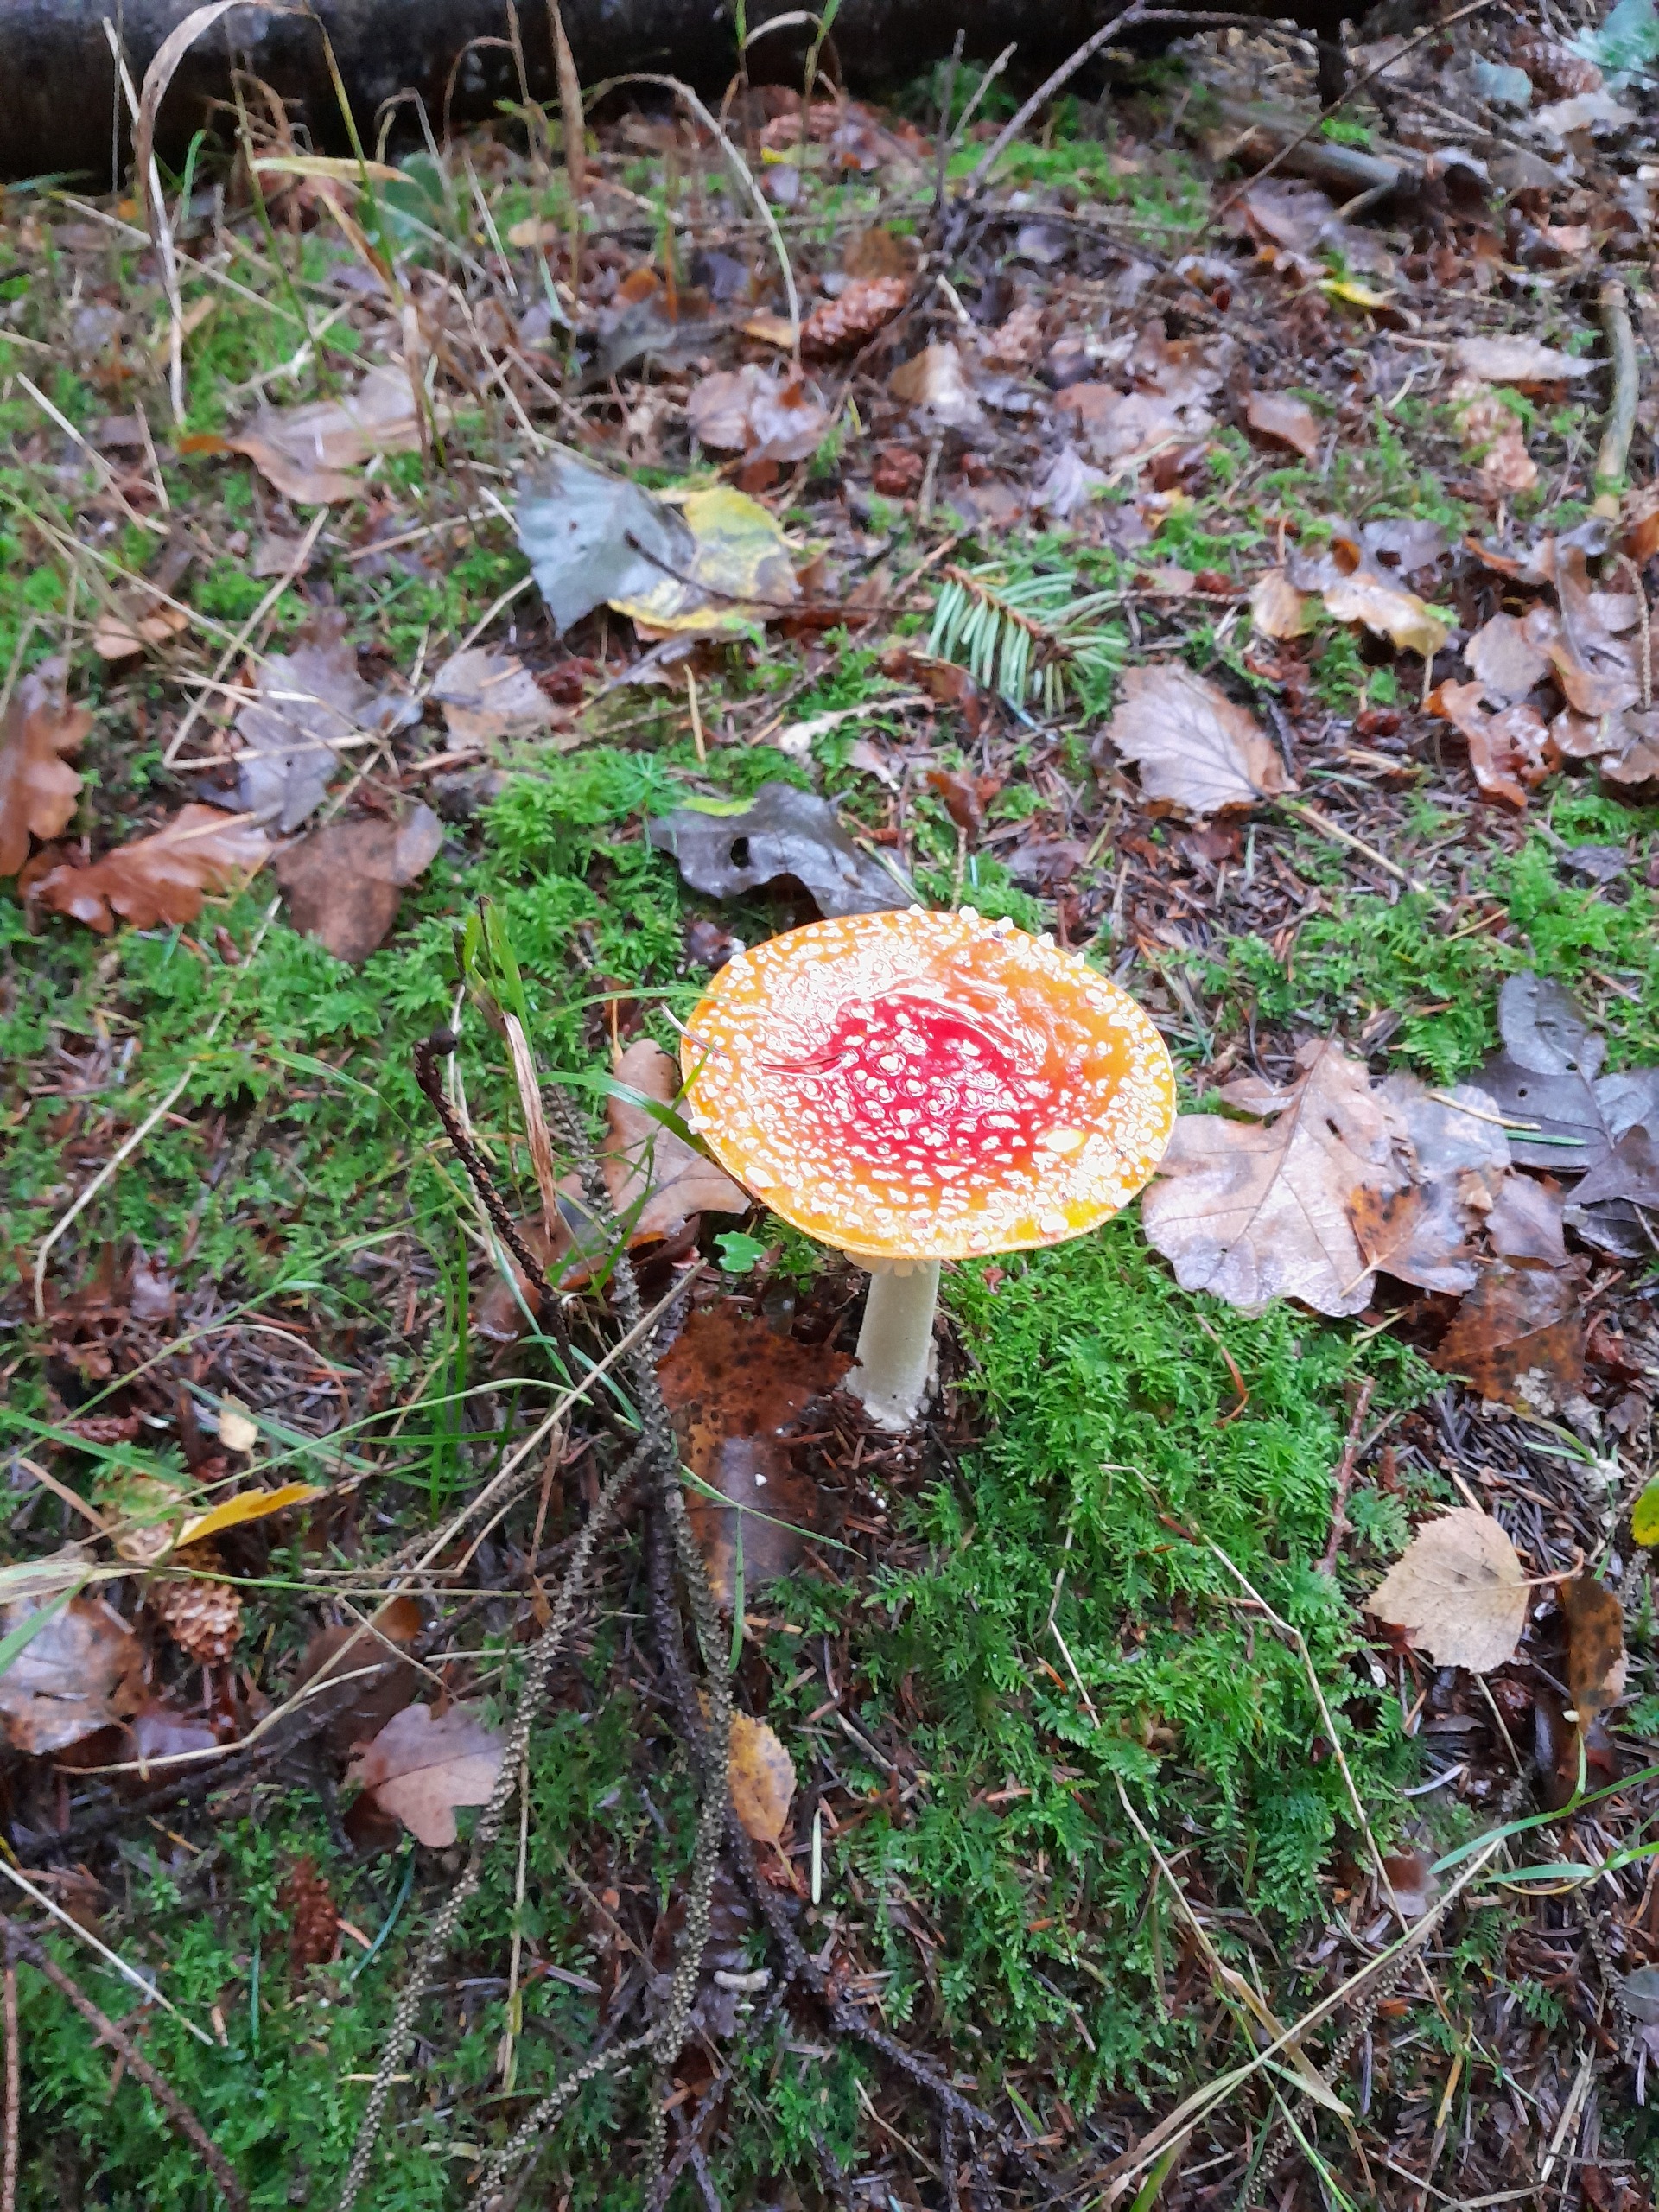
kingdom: Fungi
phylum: Basidiomycota
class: Agaricomycetes
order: Agaricales
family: Amanitaceae
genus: Amanita
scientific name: Amanita muscaria
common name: Rød fluesvamp
